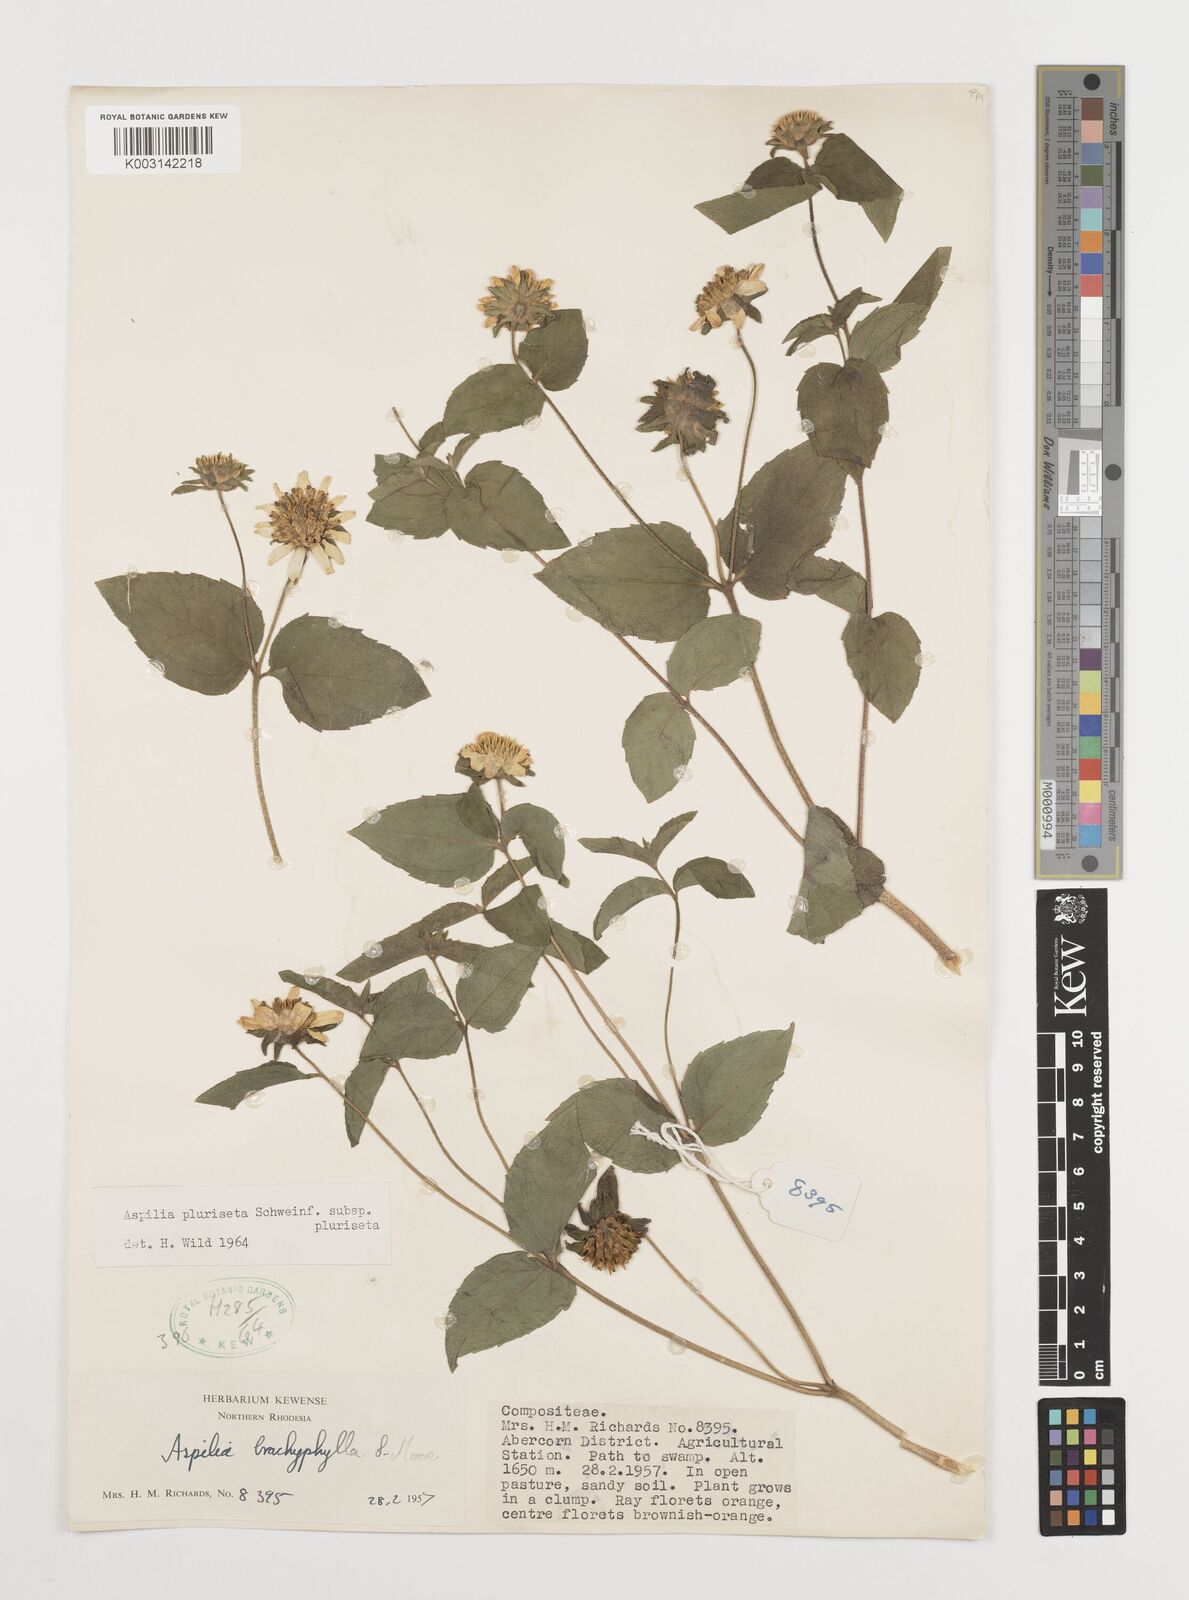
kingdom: Plantae
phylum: Tracheophyta
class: Magnoliopsida
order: Asterales
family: Asteraceae
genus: Aspilia
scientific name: Aspilia pluriseta
